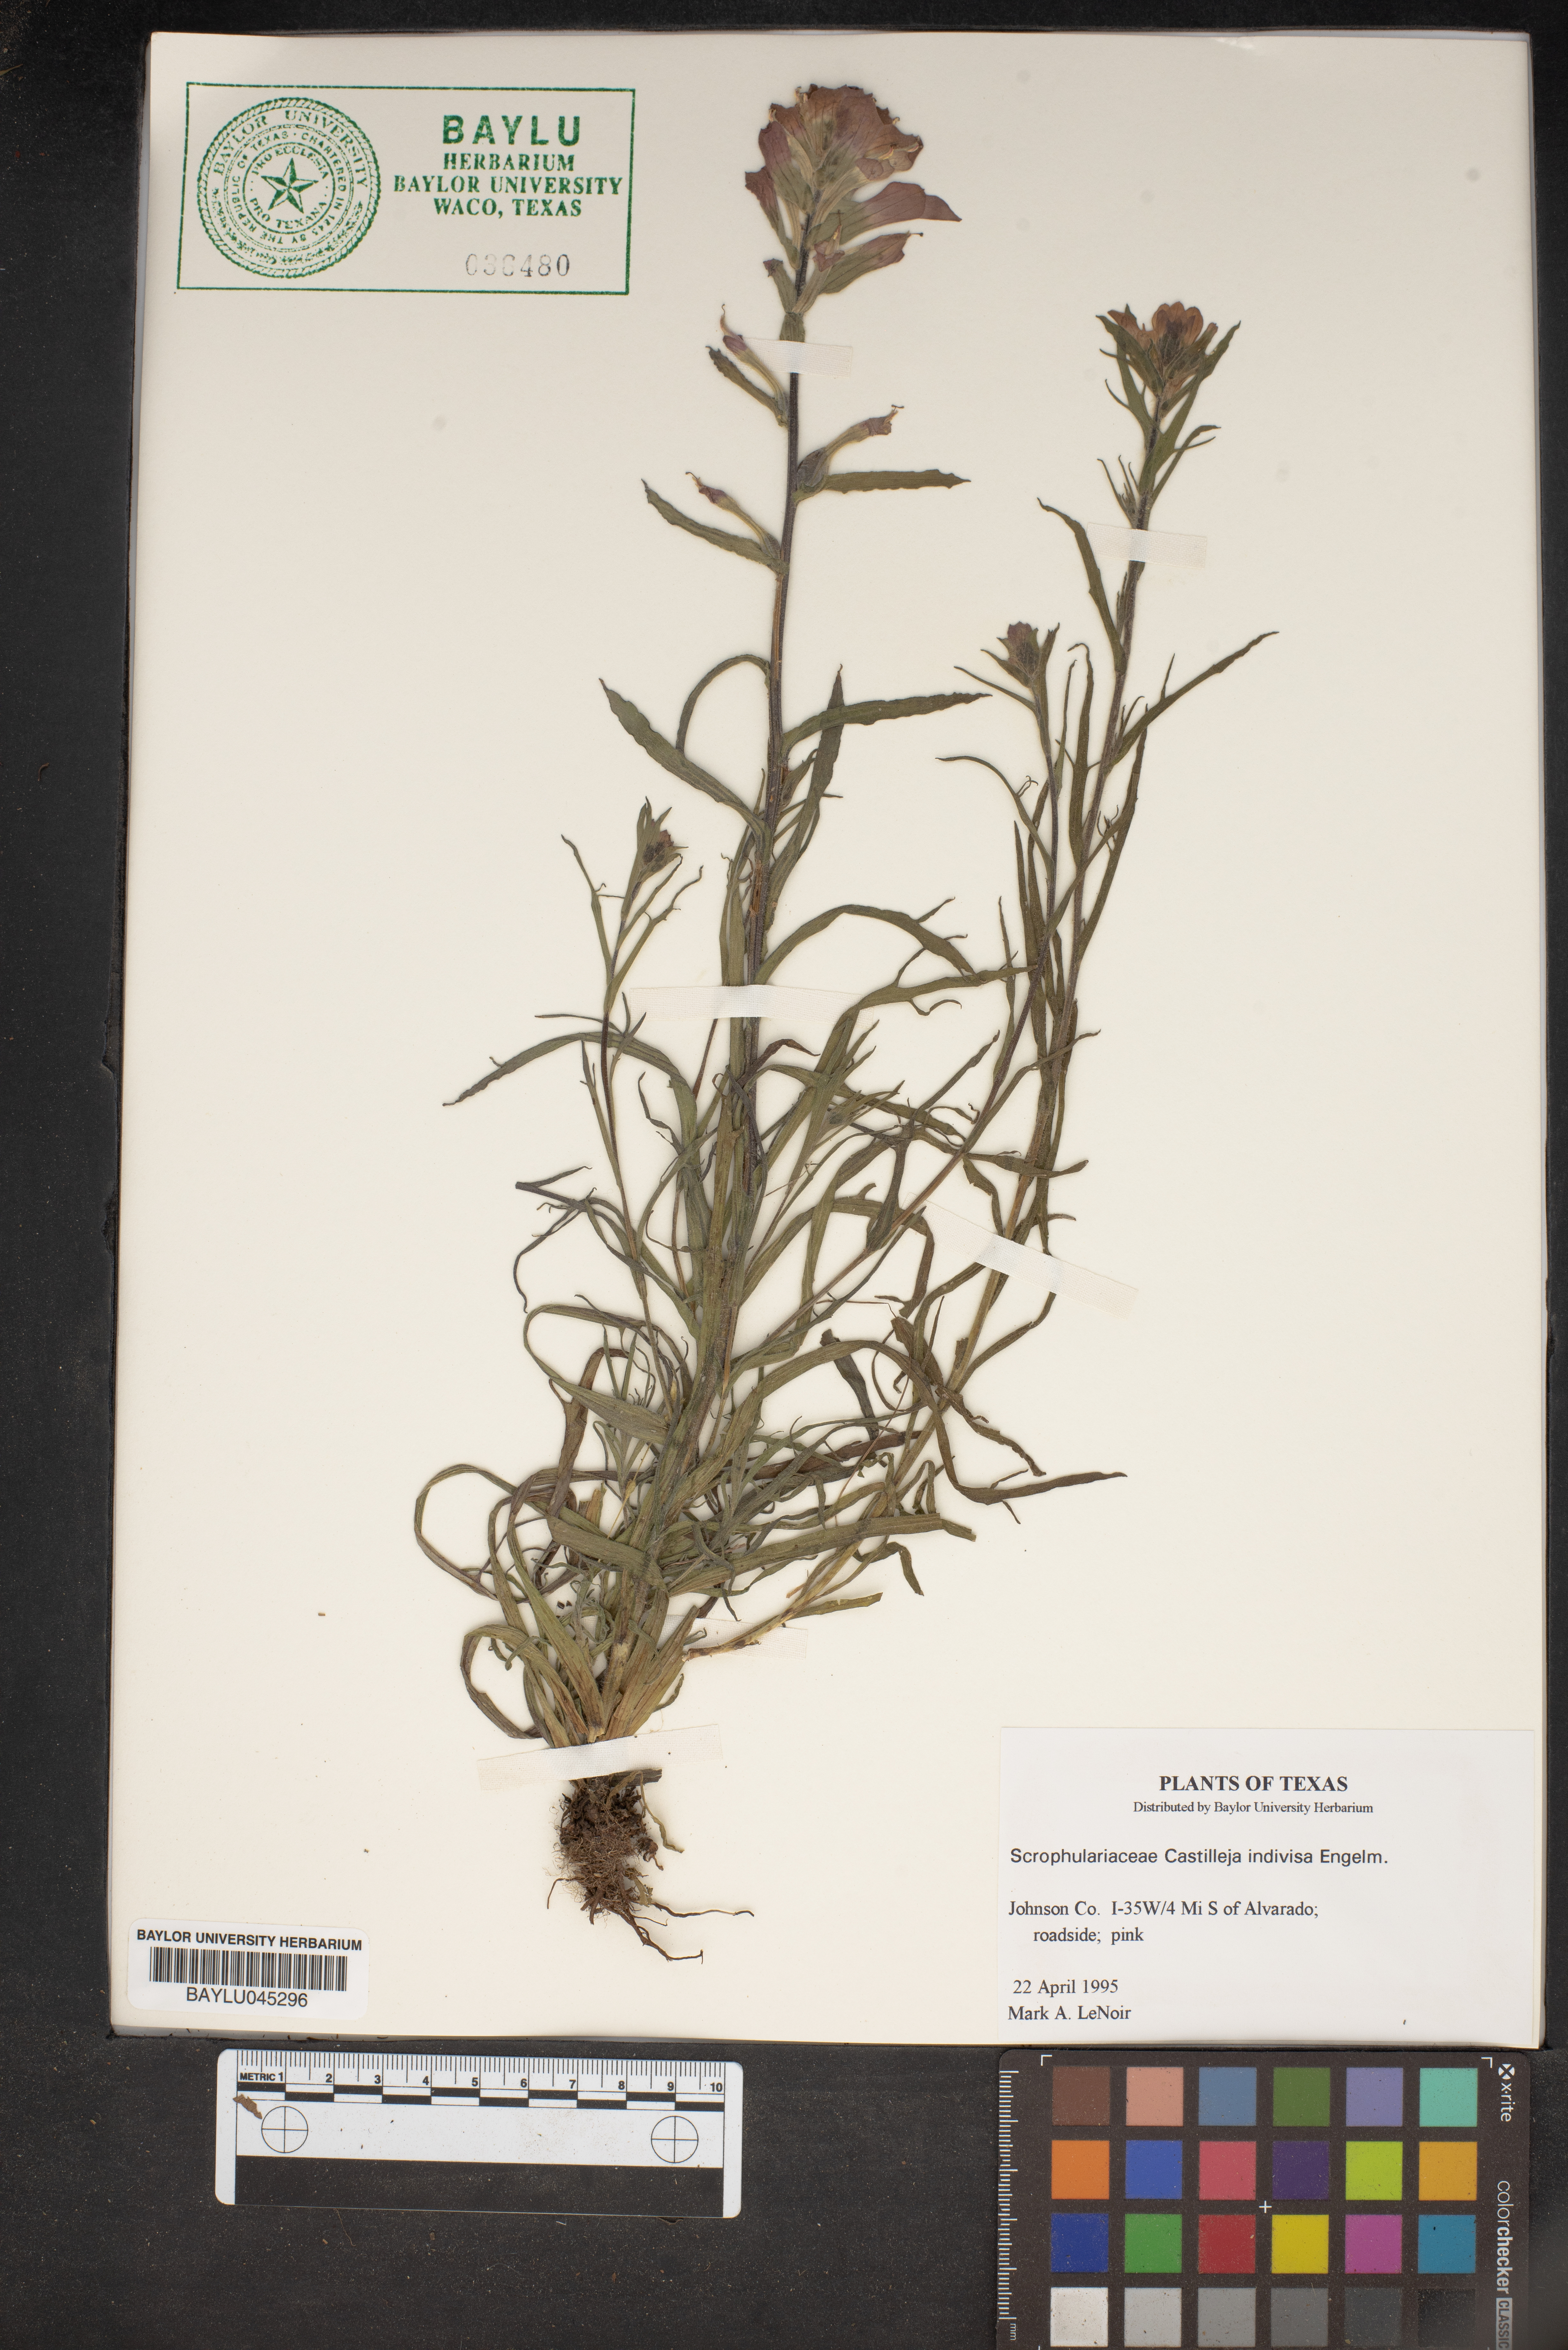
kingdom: Plantae
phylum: Tracheophyta
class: Magnoliopsida
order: Lamiales
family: Orobanchaceae
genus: Castilleja
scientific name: Castilleja indivisa
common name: Texas paintbrush
